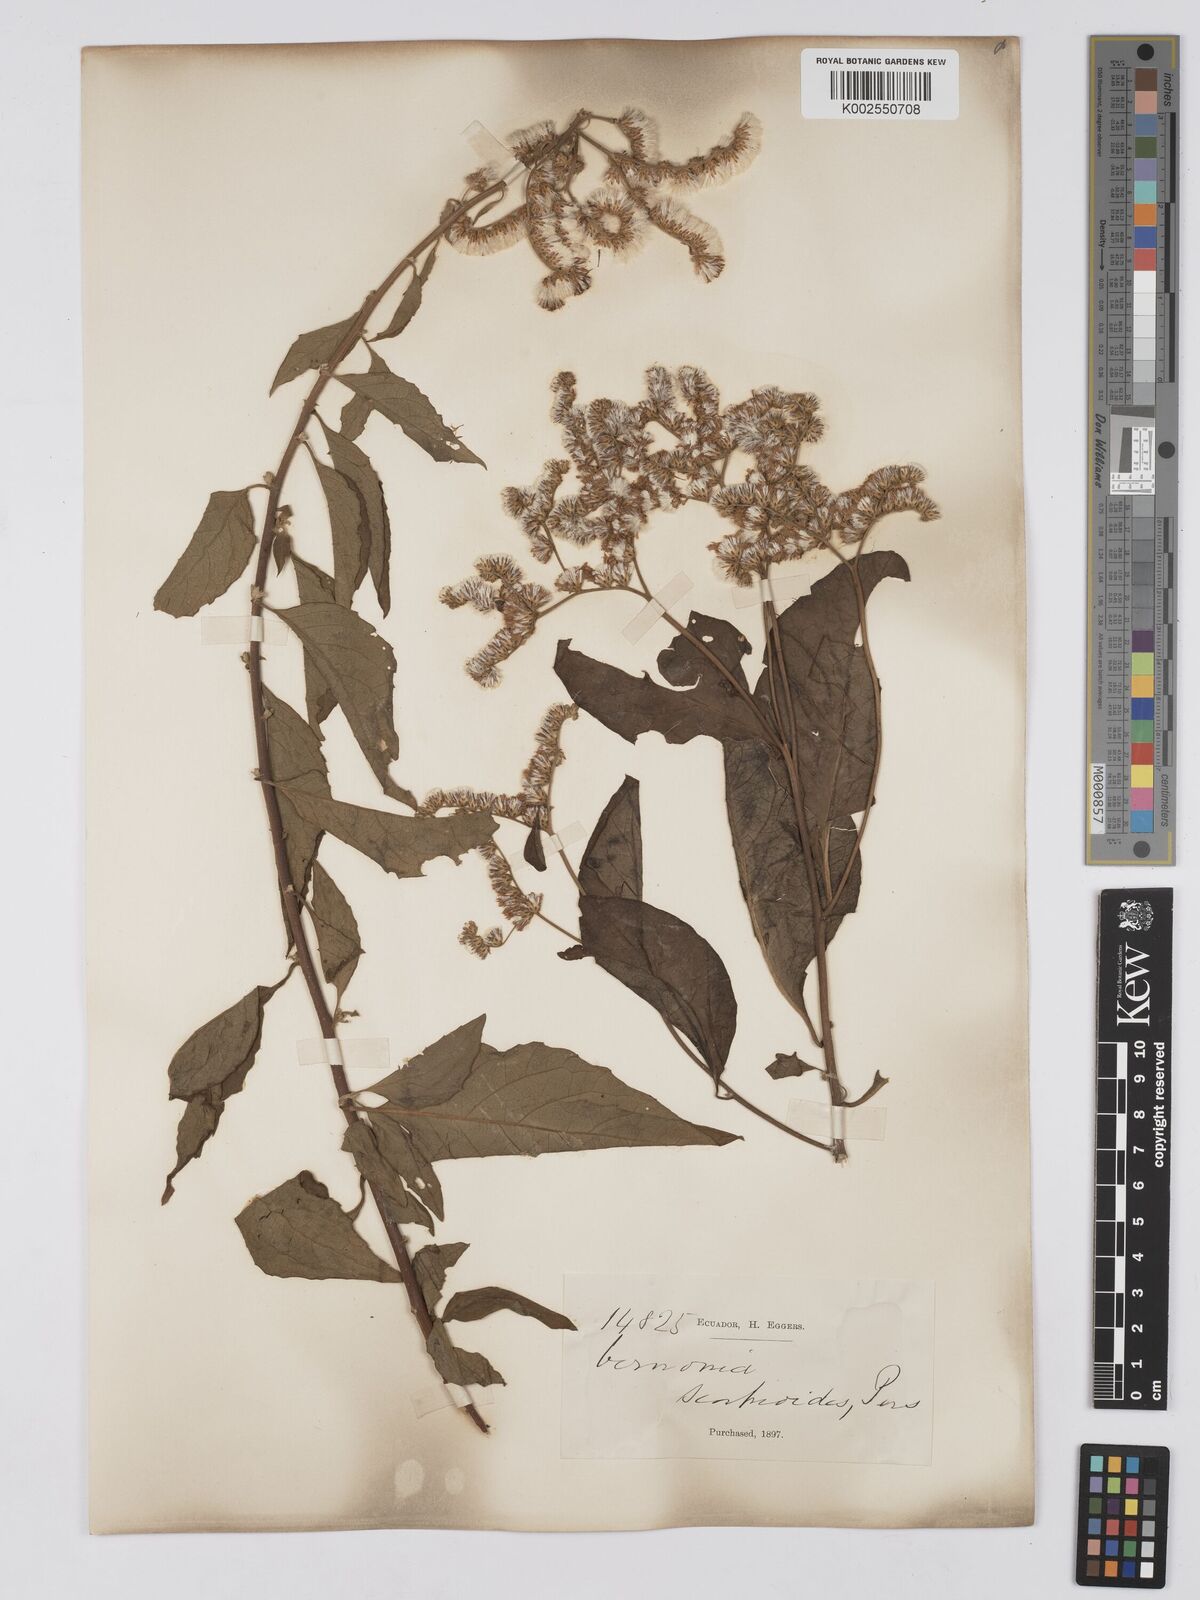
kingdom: Plantae
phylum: Tracheophyta
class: Magnoliopsida
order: Asterales
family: Asteraceae
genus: Cyrtocymura
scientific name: Cyrtocymura scorpioides
